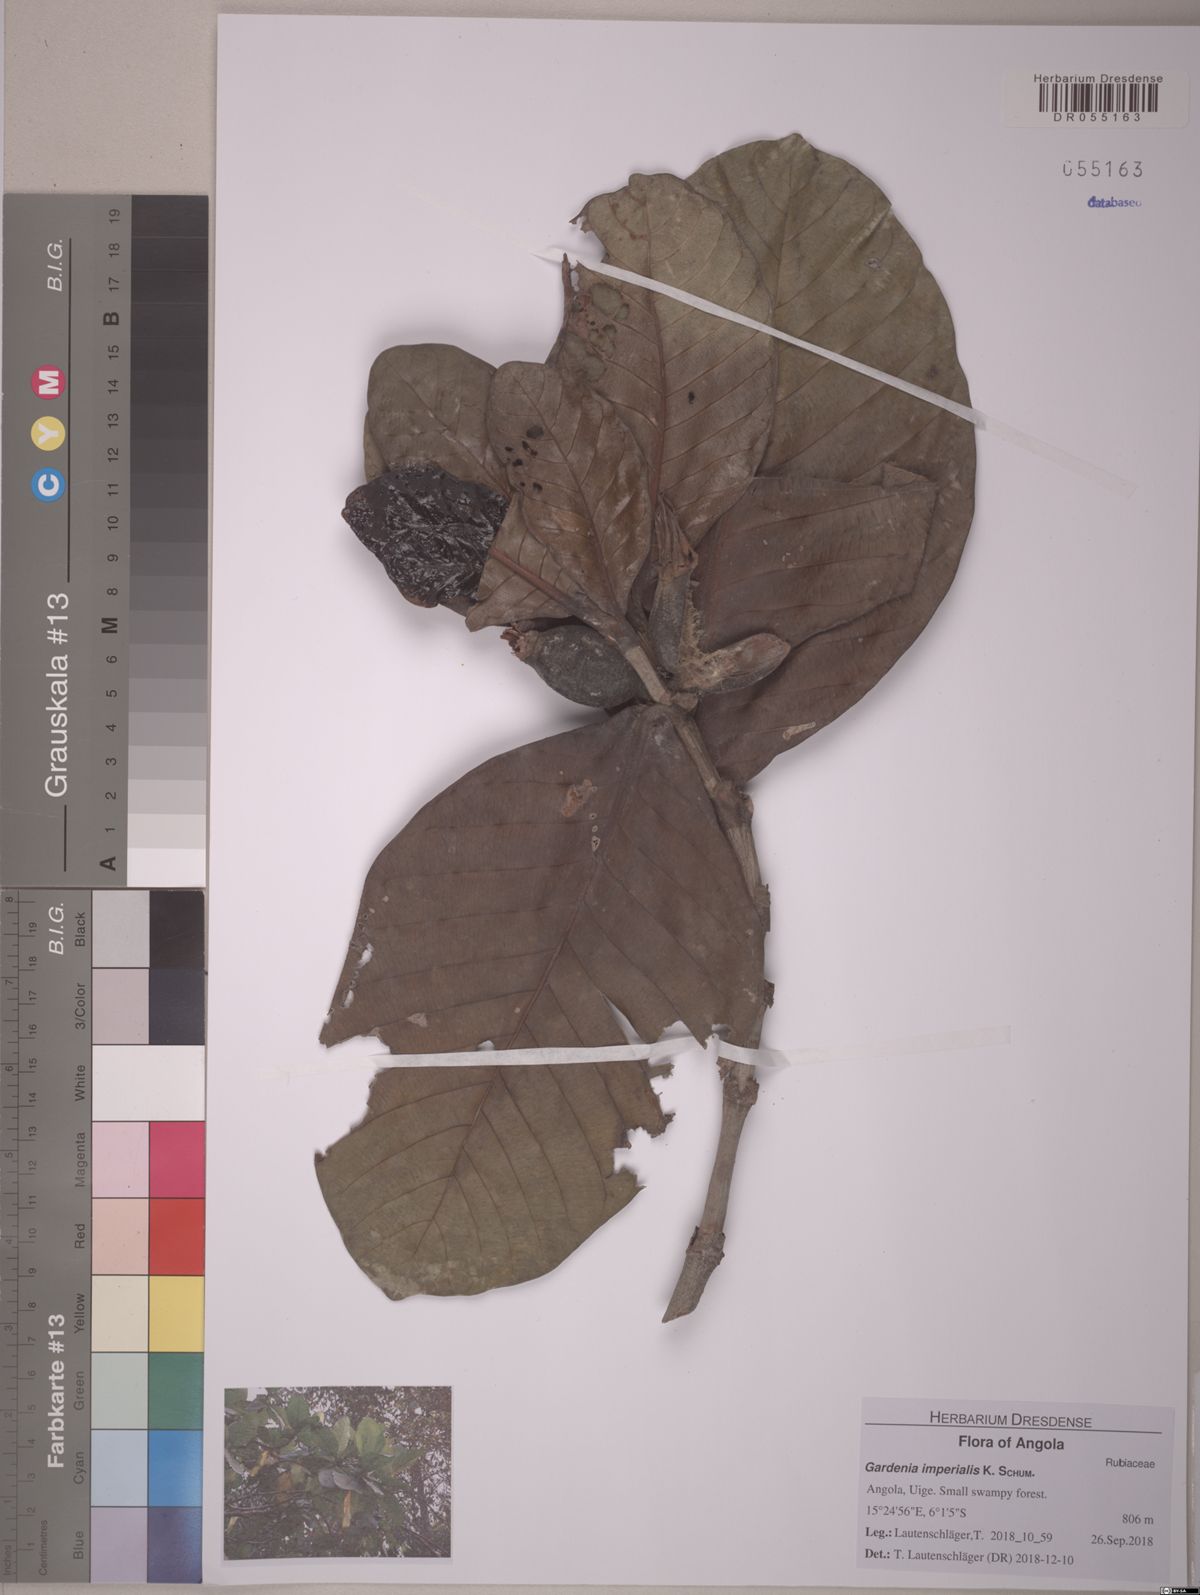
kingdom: Plantae
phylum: Tracheophyta
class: Magnoliopsida
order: Gentianales
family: Rubiaceae
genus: Gardenia
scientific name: Gardenia imperialis
